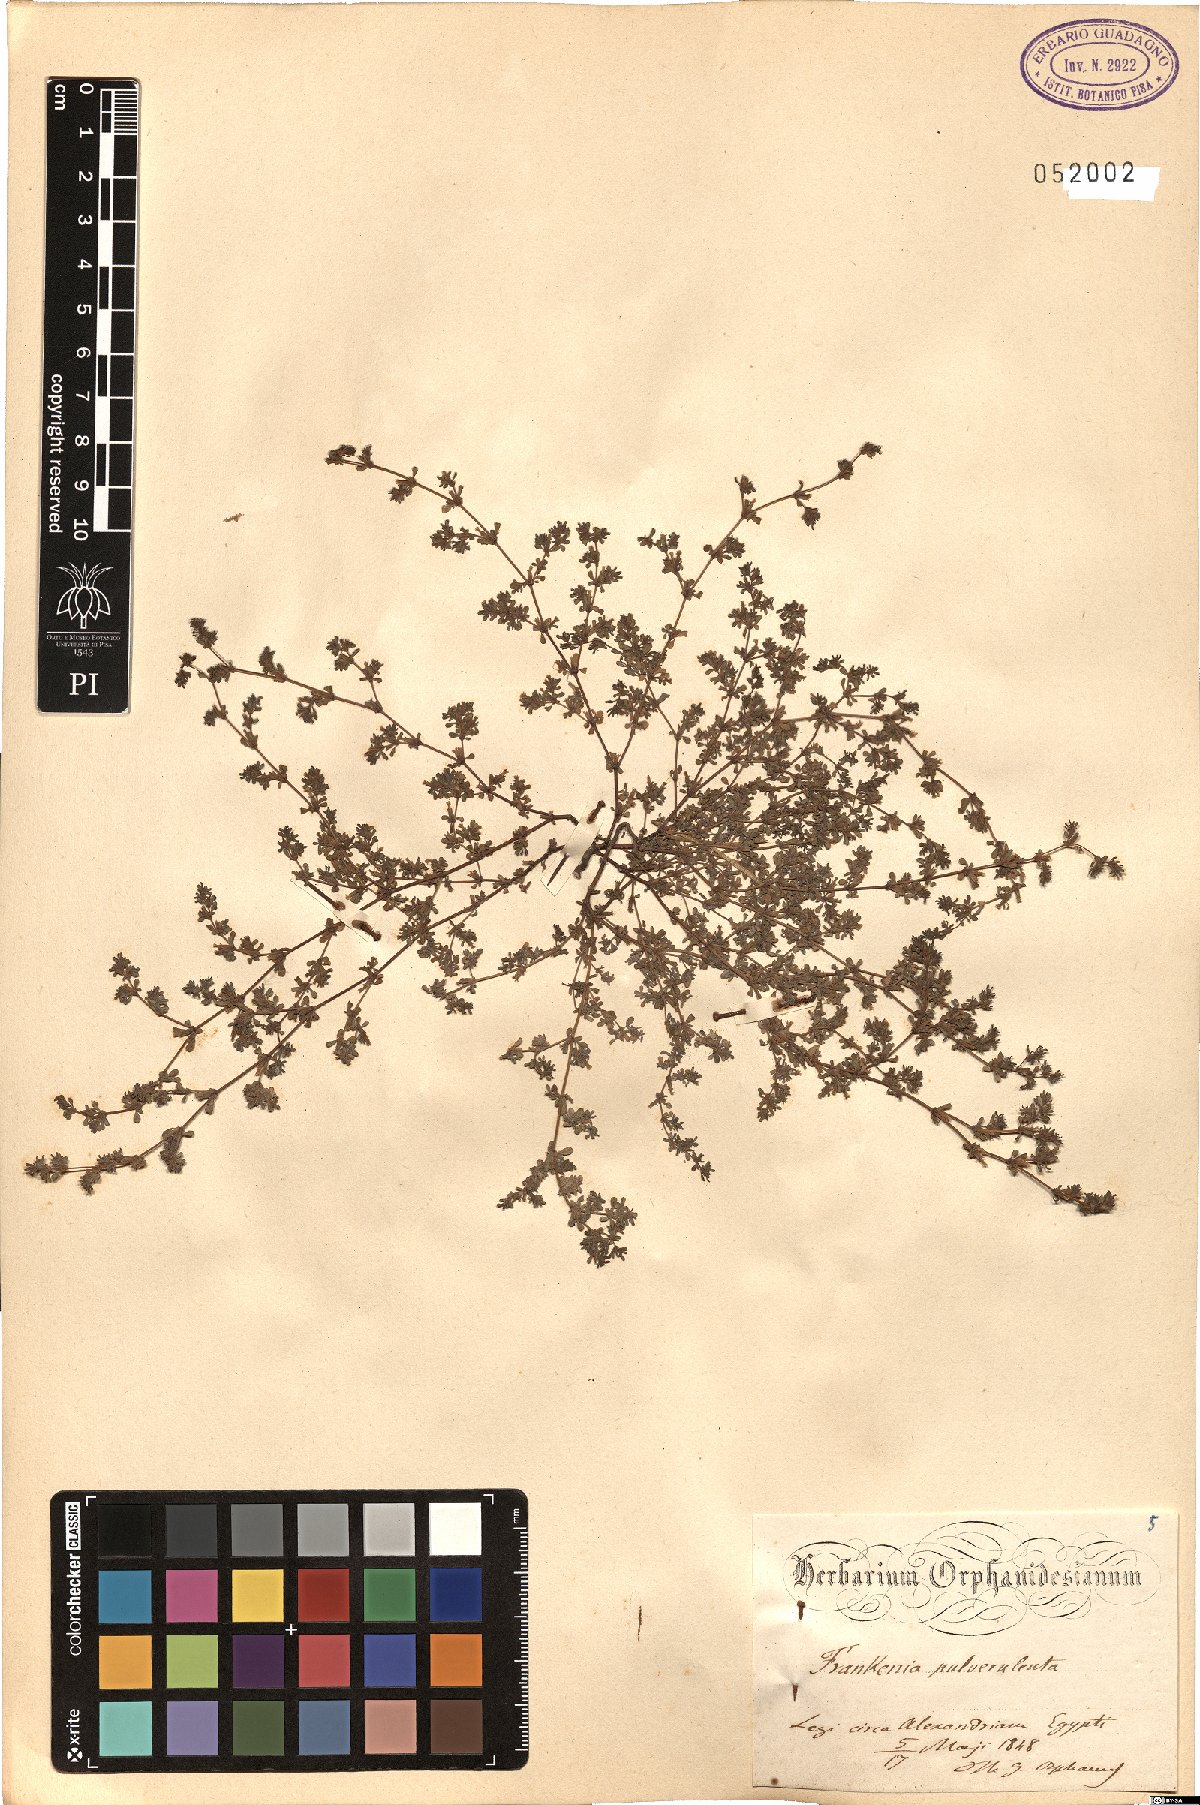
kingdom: Plantae
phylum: Tracheophyta
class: Magnoliopsida
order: Caryophyllales
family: Frankeniaceae
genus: Frankenia
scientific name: Frankenia pulverulenta
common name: European seaheath
